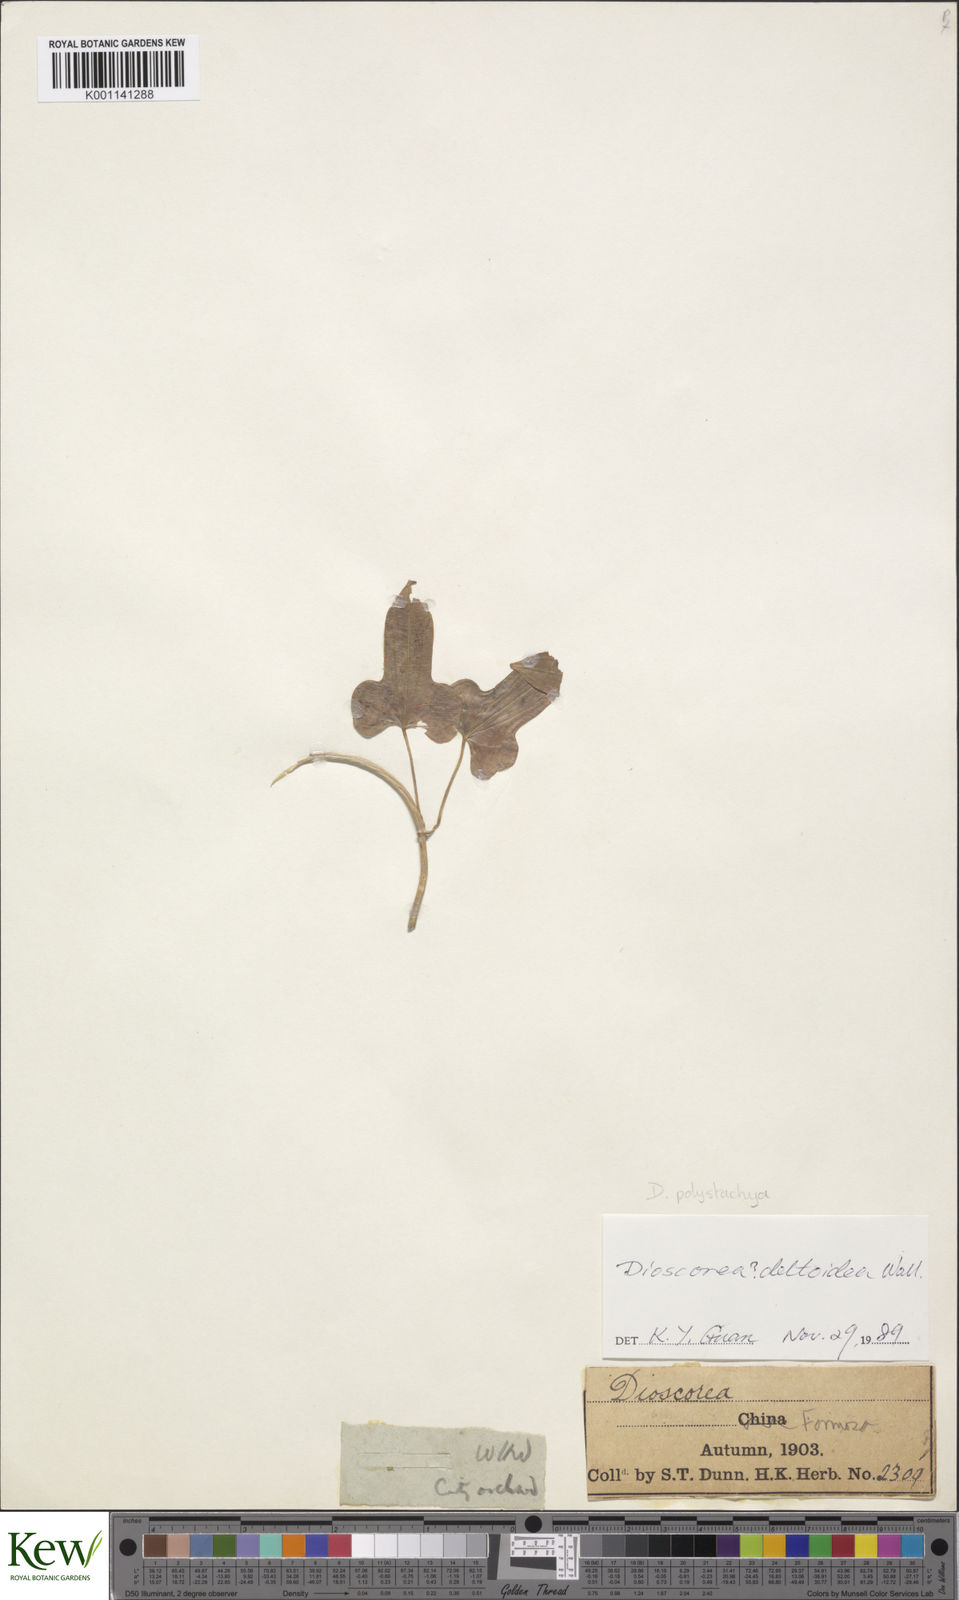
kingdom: Plantae
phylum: Tracheophyta
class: Liliopsida
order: Dioscoreales
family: Dioscoreaceae
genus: Dioscorea
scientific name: Dioscorea deltoidea
